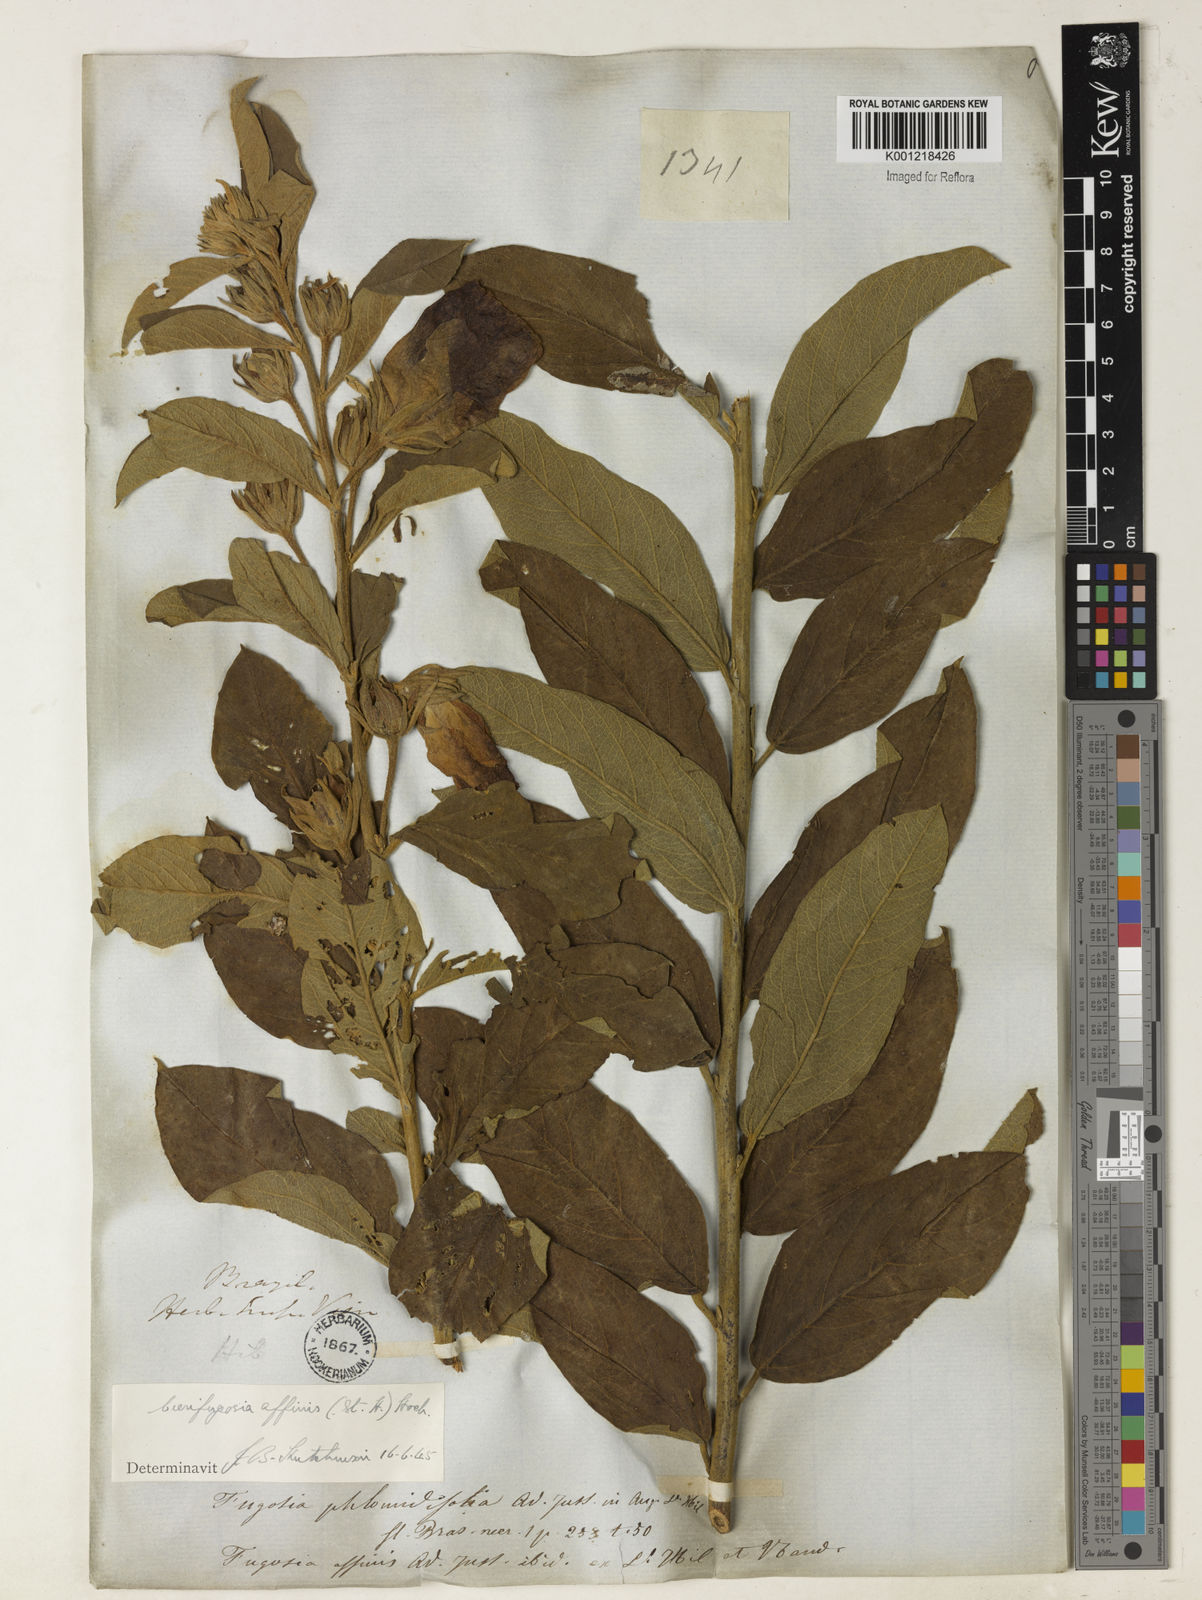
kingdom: Plantae
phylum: Tracheophyta
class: Magnoliopsida
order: Malvales
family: Malvaceae
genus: Cienfuegosia
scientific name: Cienfuegosia affinis
